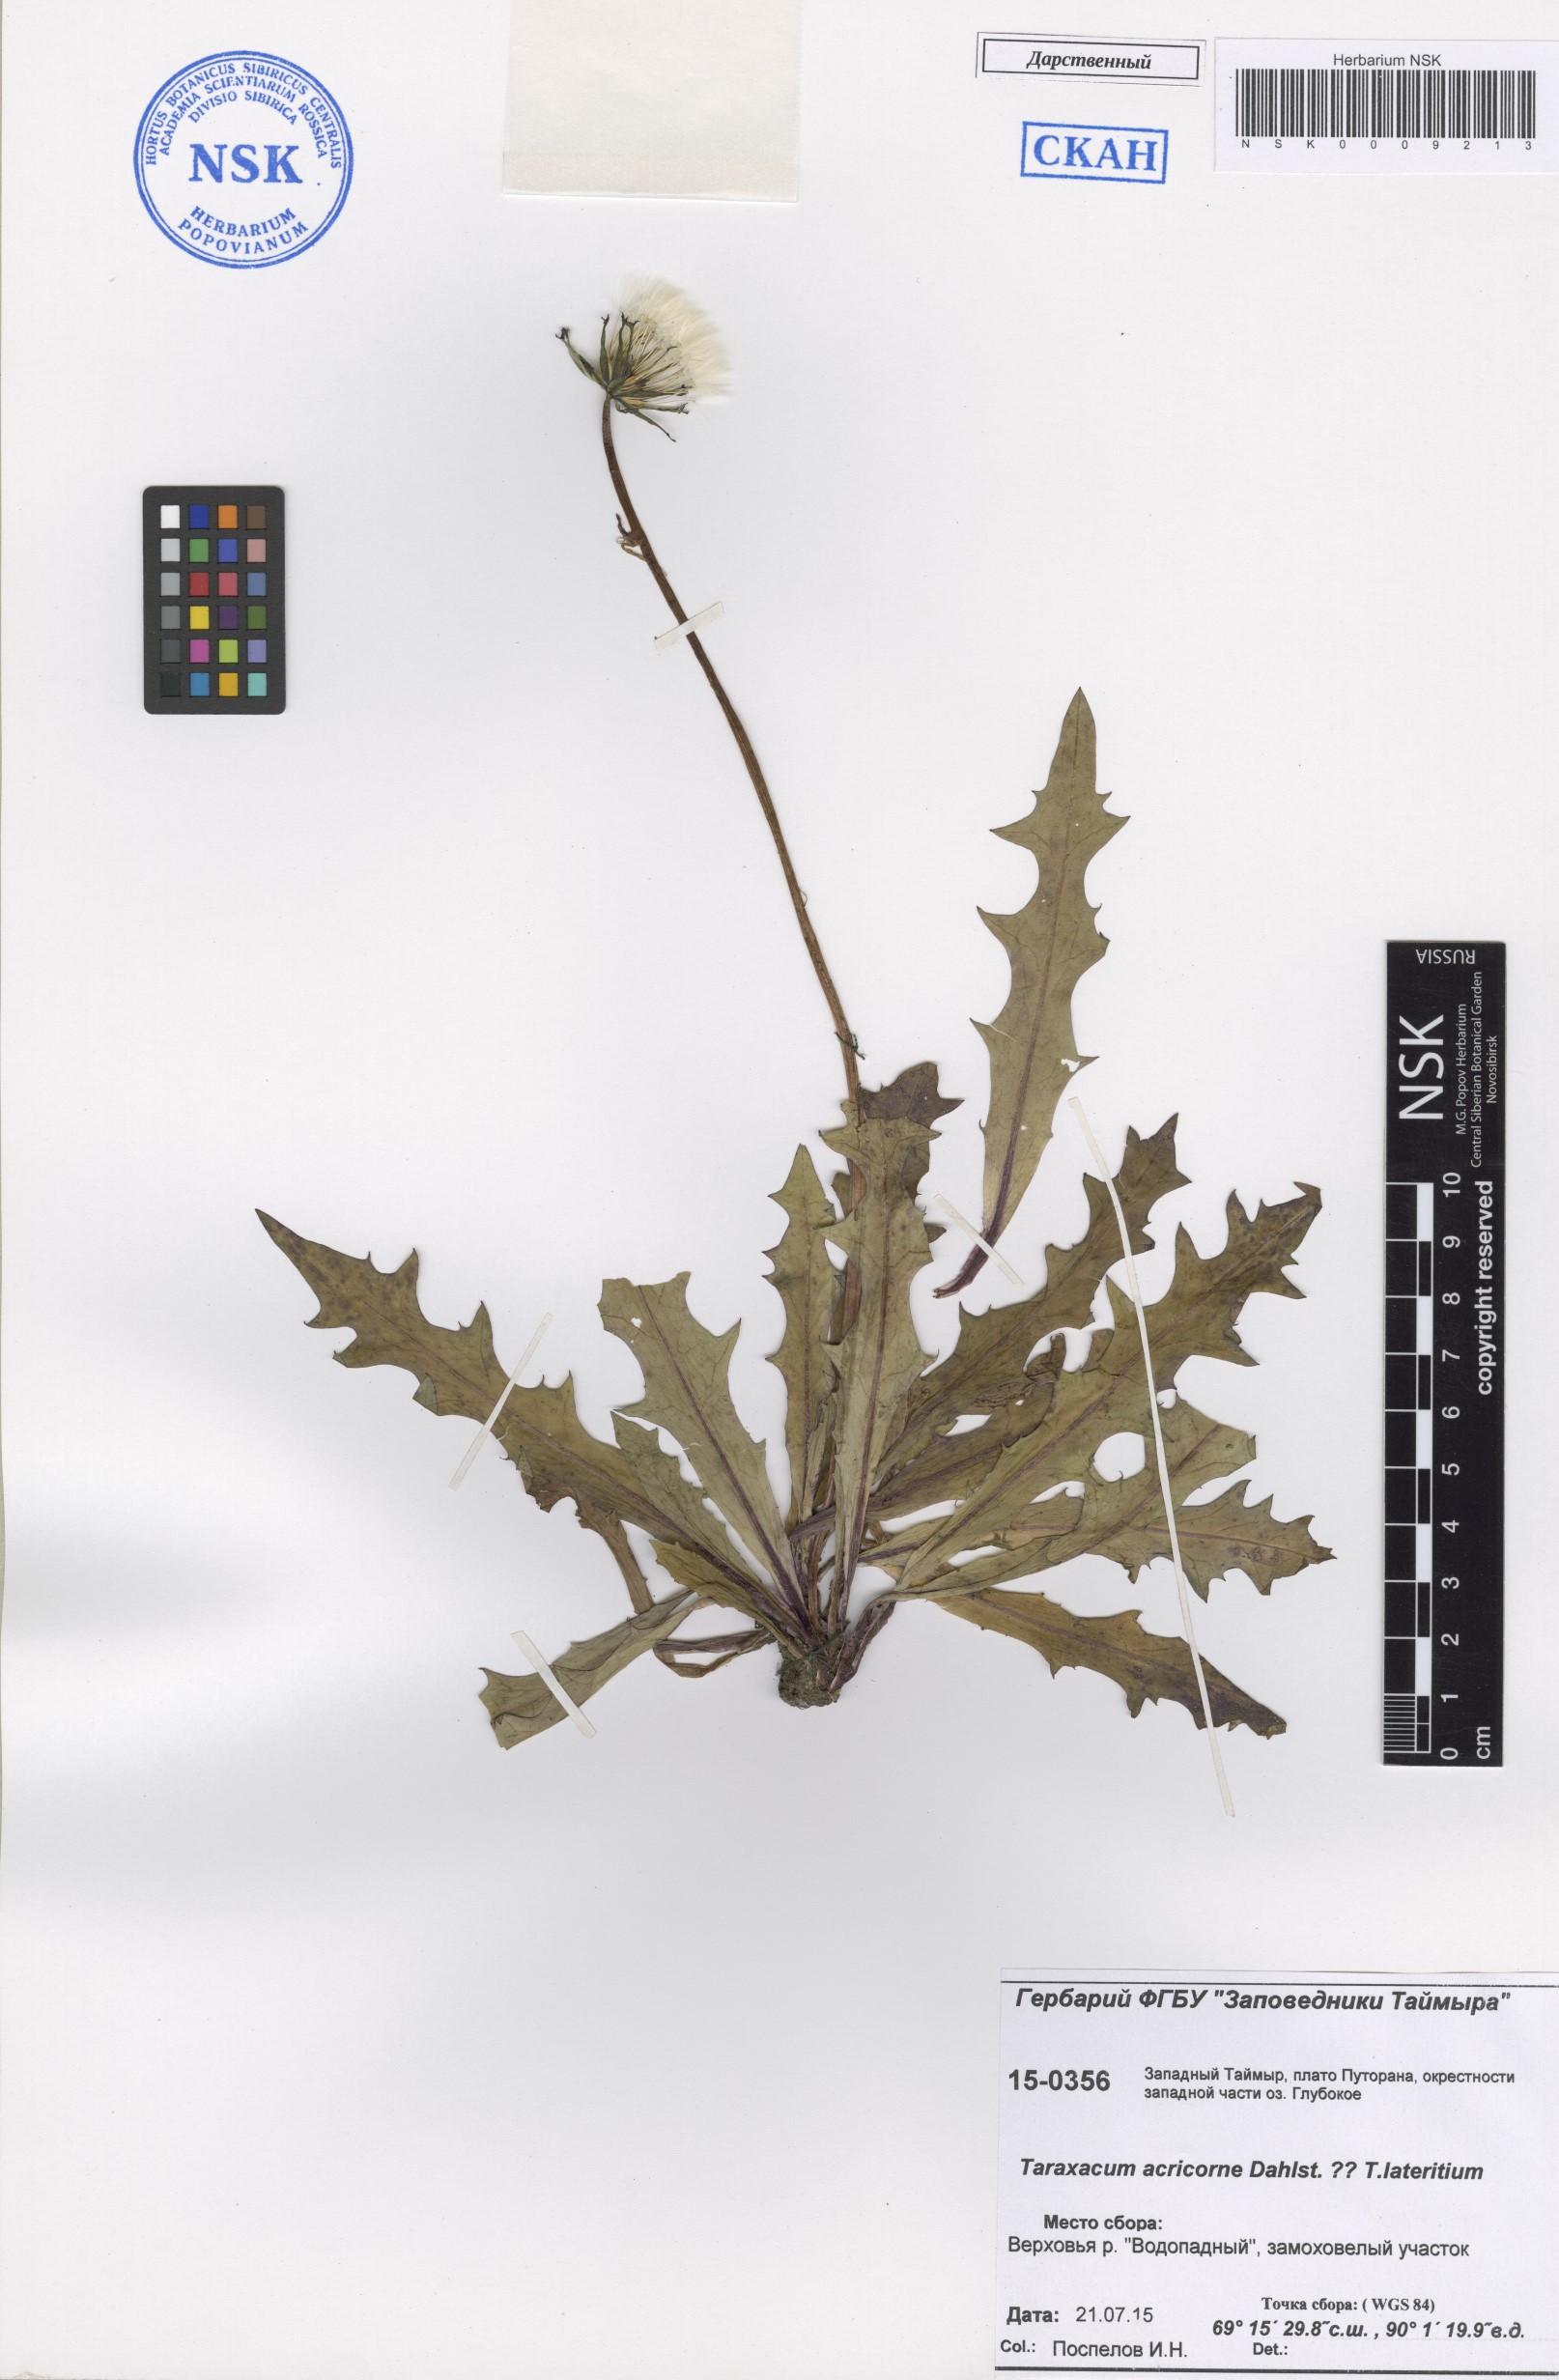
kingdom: Plantae
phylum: Tracheophyta
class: Magnoliopsida
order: Asterales
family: Asteraceae
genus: Taraxacum
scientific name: Taraxacum acricorne
